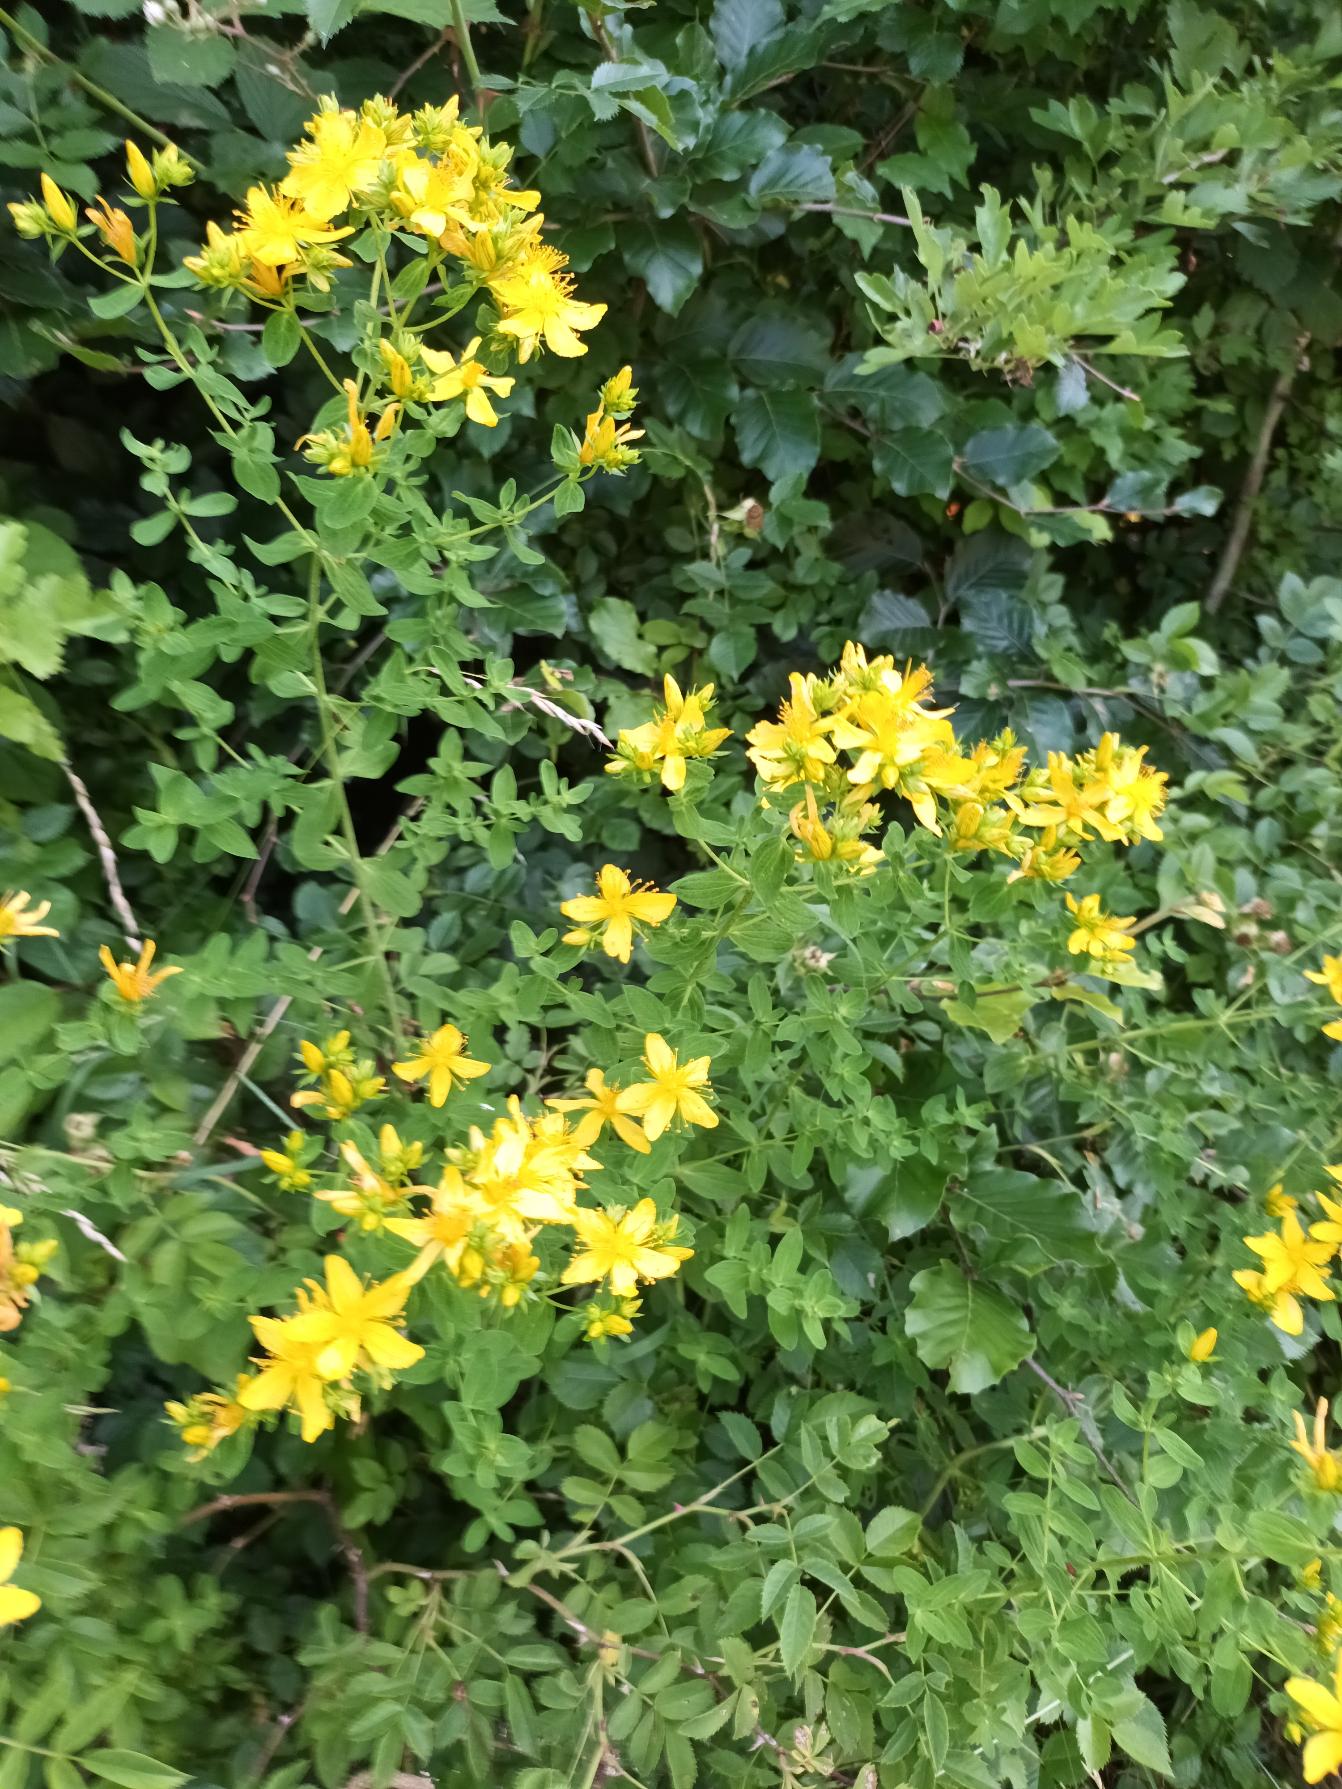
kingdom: Plantae
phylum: Tracheophyta
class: Magnoliopsida
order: Malpighiales
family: Hypericaceae
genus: Hypericum
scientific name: Hypericum perforatum
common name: Prikbladet perikon
